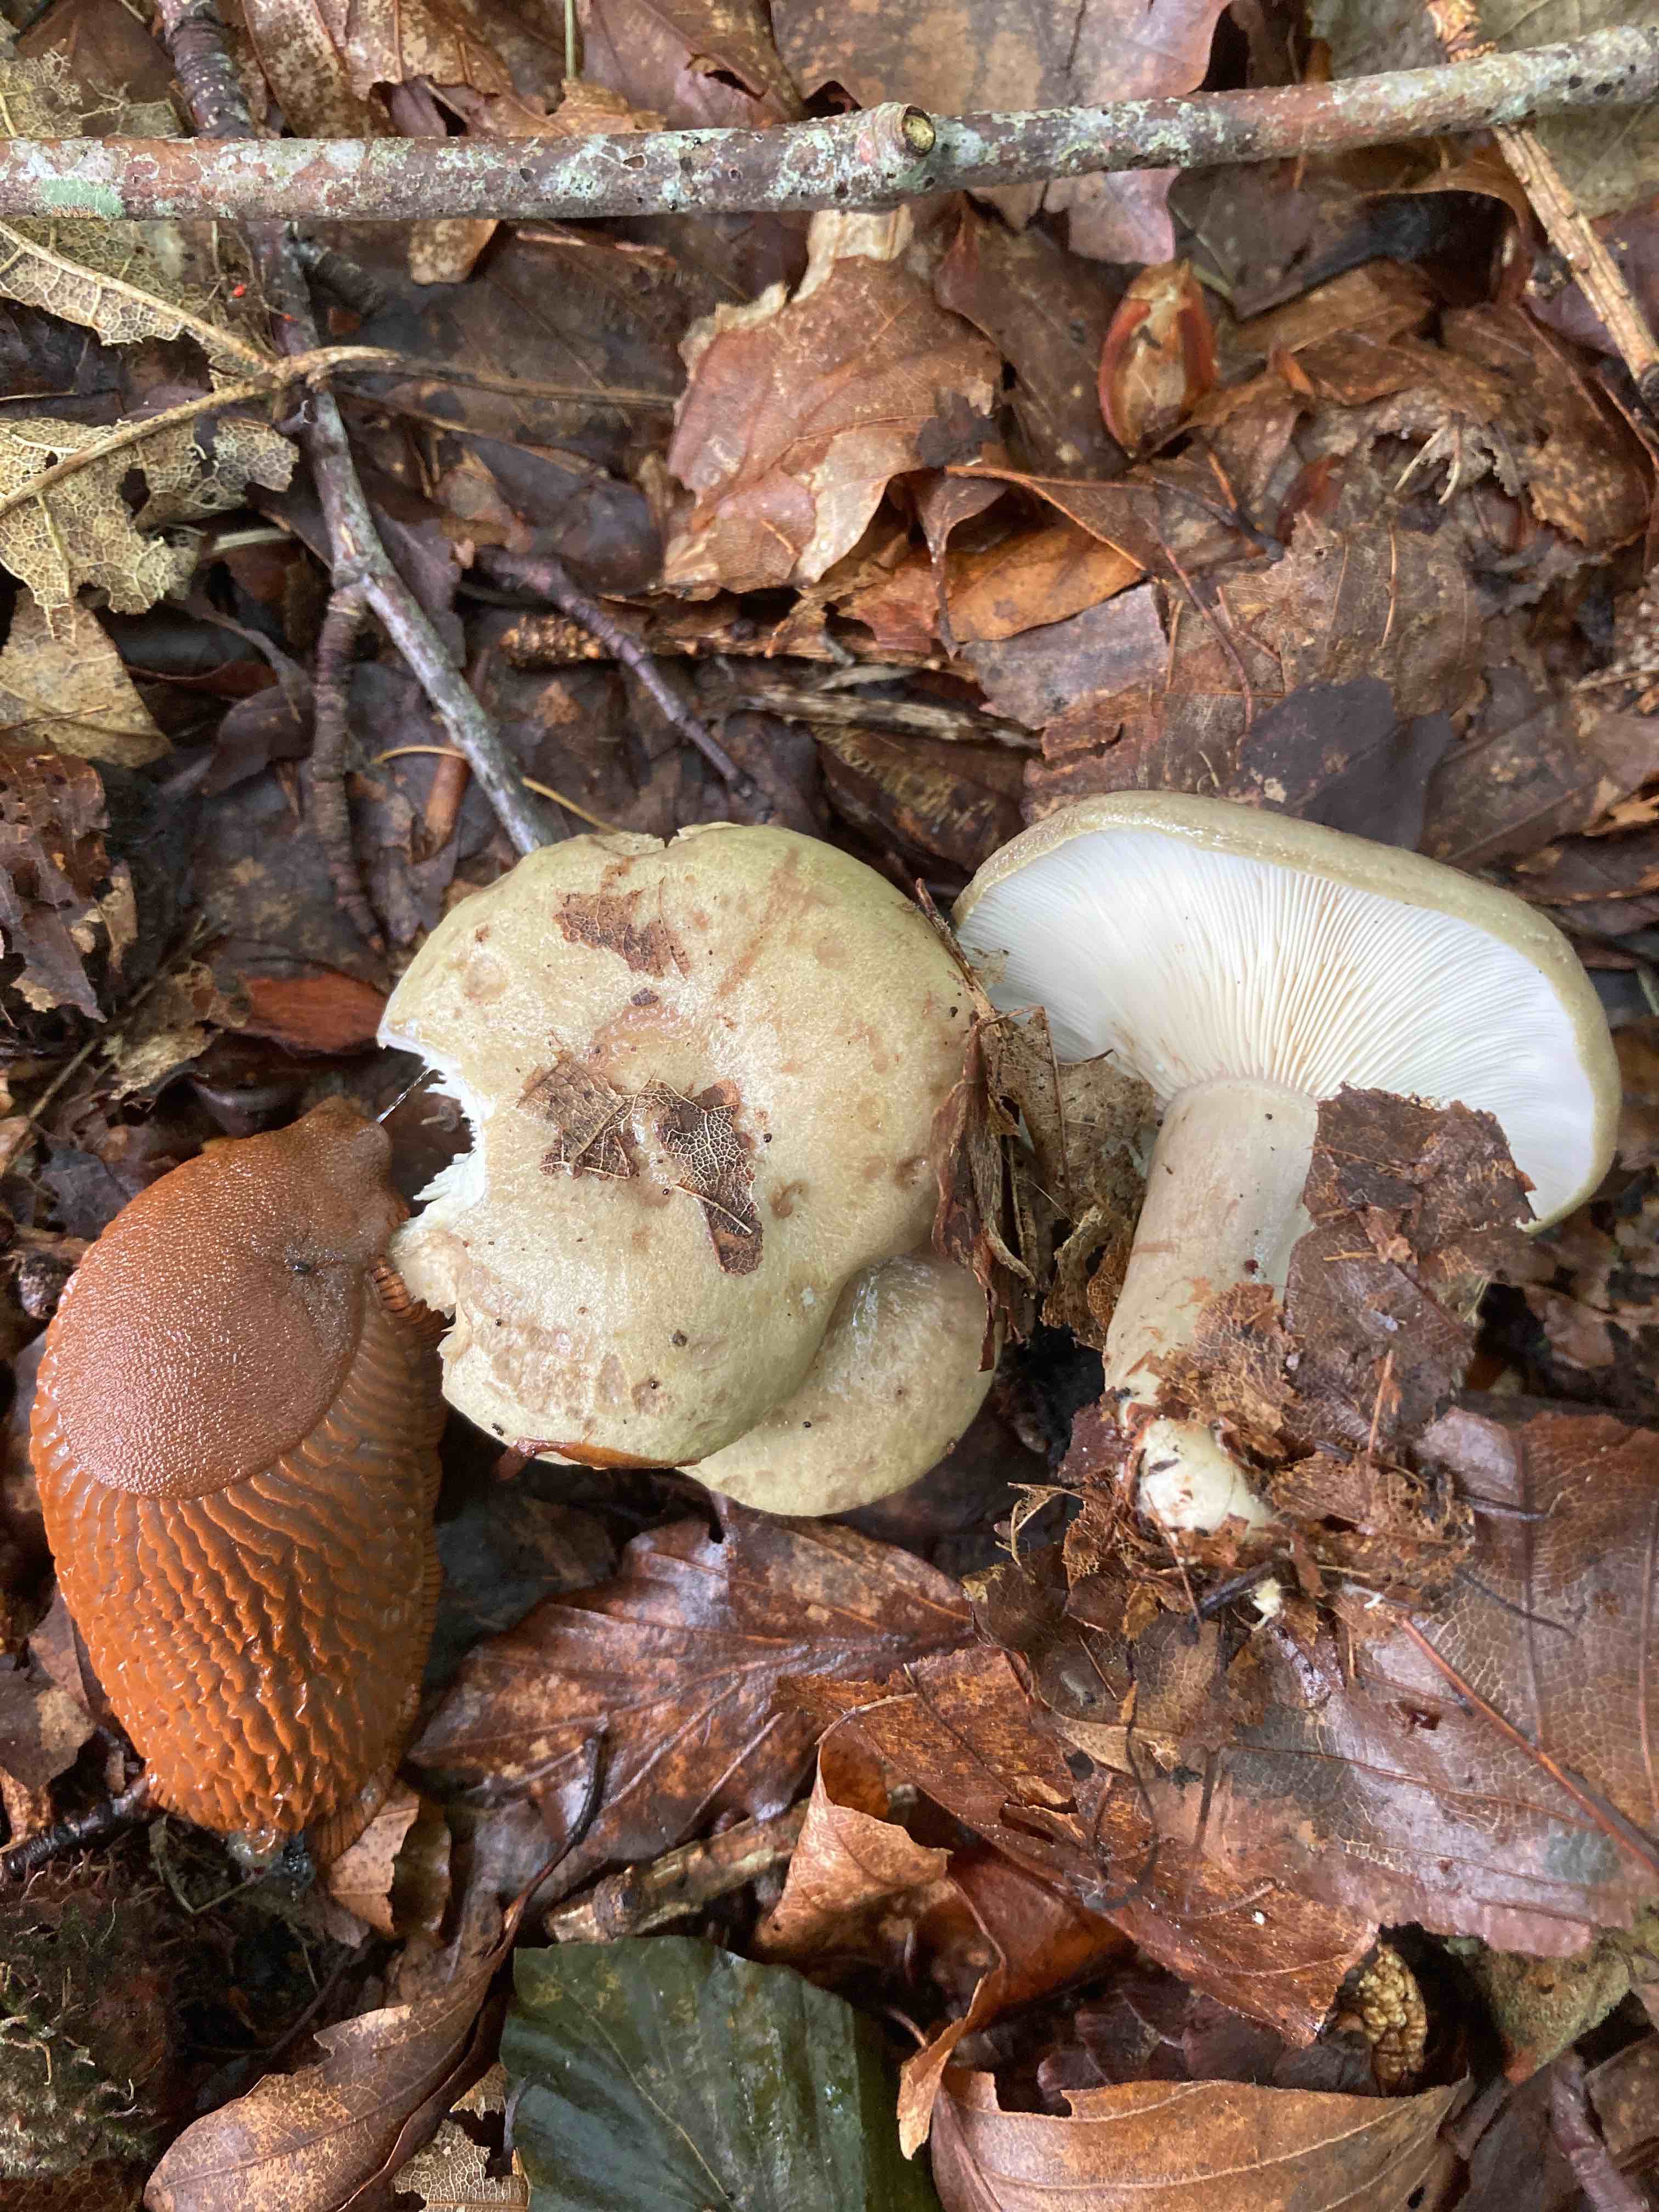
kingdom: Fungi
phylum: Basidiomycota
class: Agaricomycetes
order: Russulales
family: Russulaceae
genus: Lactarius
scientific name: Lactarius blennius
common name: dråbeplettet mælkehat
